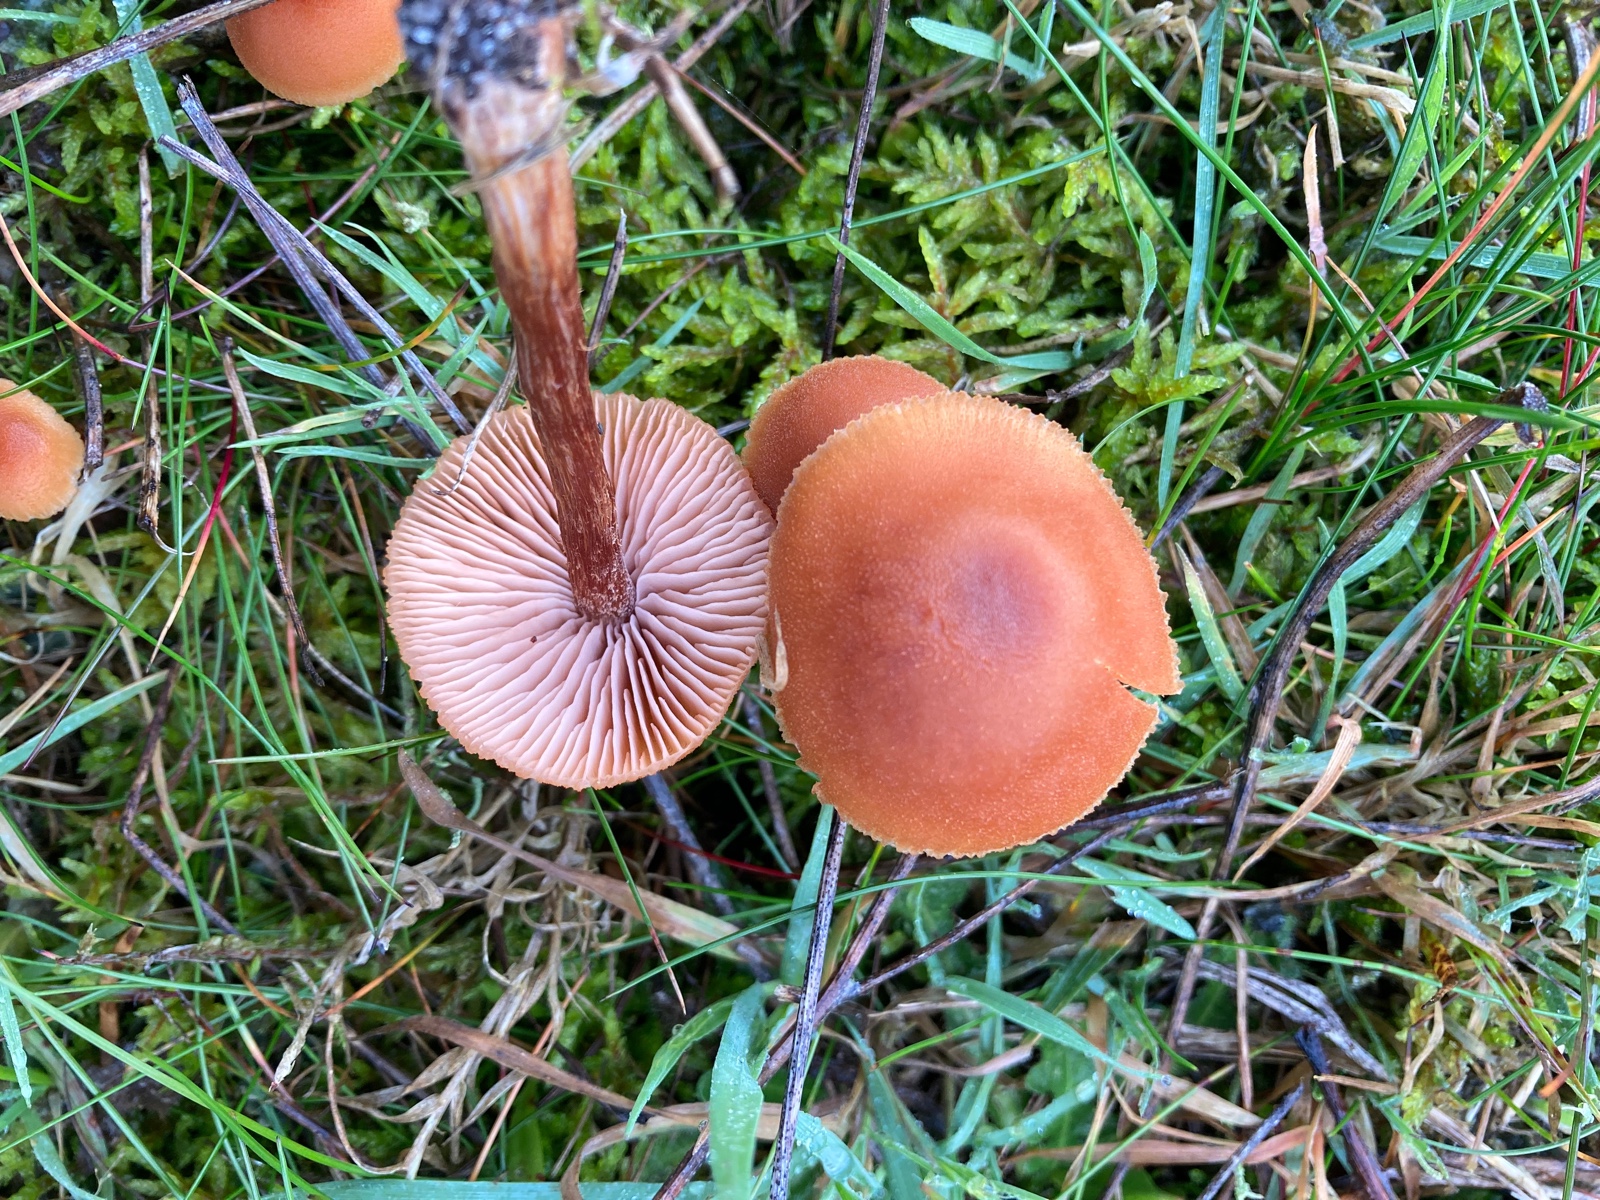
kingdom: Fungi
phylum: Basidiomycota
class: Agaricomycetes
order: Agaricales
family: Hydnangiaceae
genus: Laccaria
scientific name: Laccaria
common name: ametysthat
